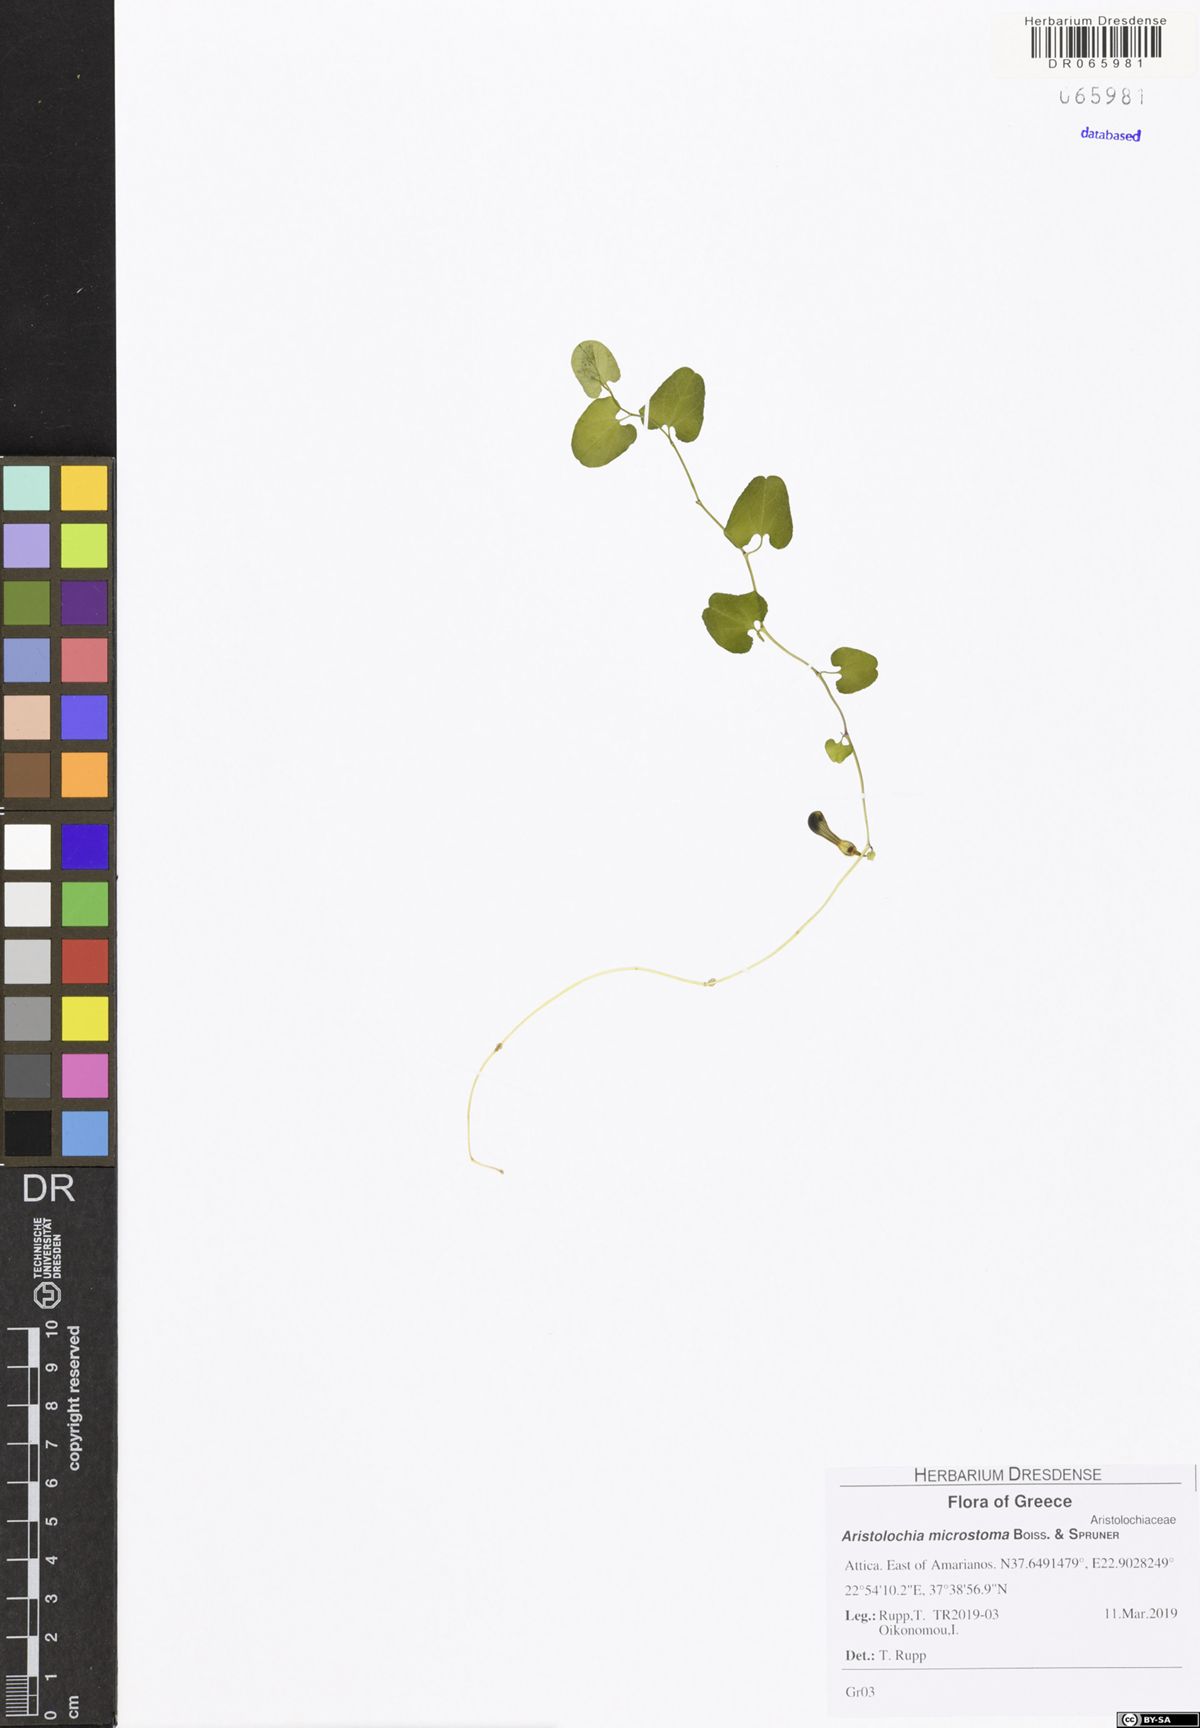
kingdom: Plantae
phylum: Tracheophyta
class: Magnoliopsida
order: Piperales
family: Aristolochiaceae
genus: Aristolochia
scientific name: Aristolochia microstoma
